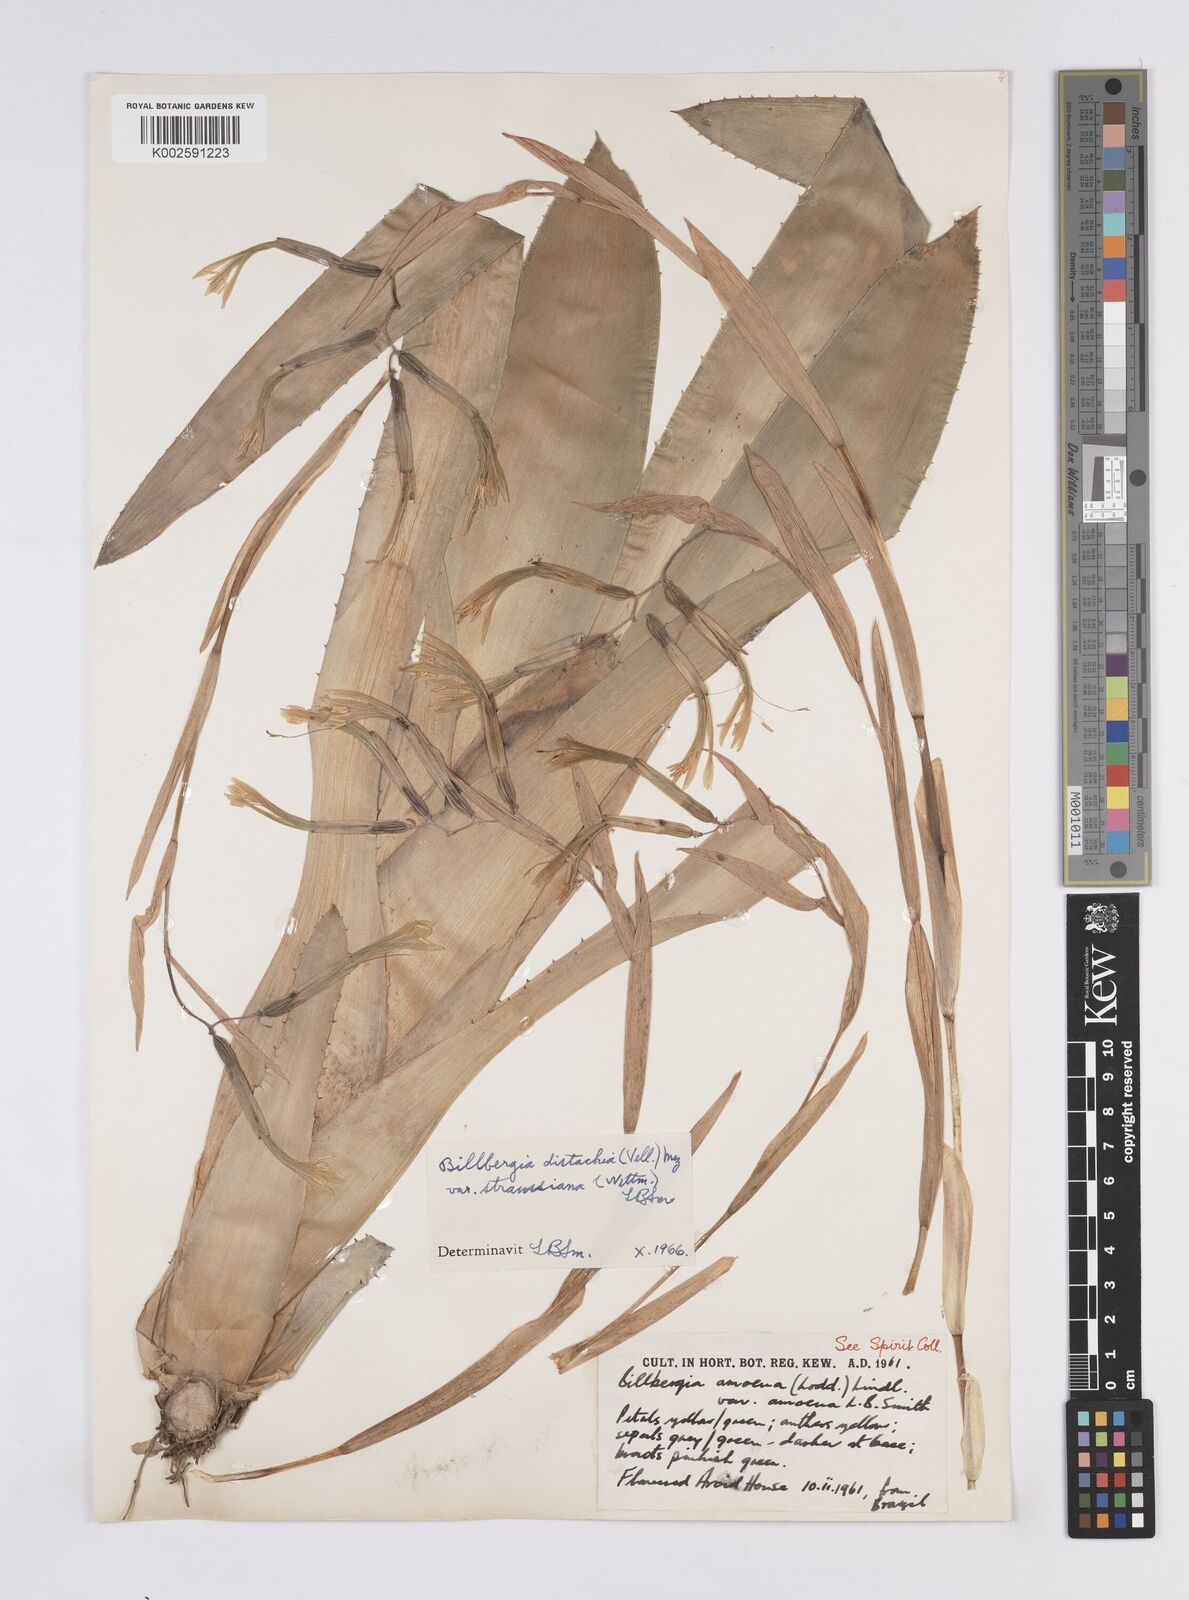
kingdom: Plantae
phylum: Tracheophyta
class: Liliopsida
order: Poales
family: Bromeliaceae
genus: Billbergia
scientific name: Billbergia distachia
